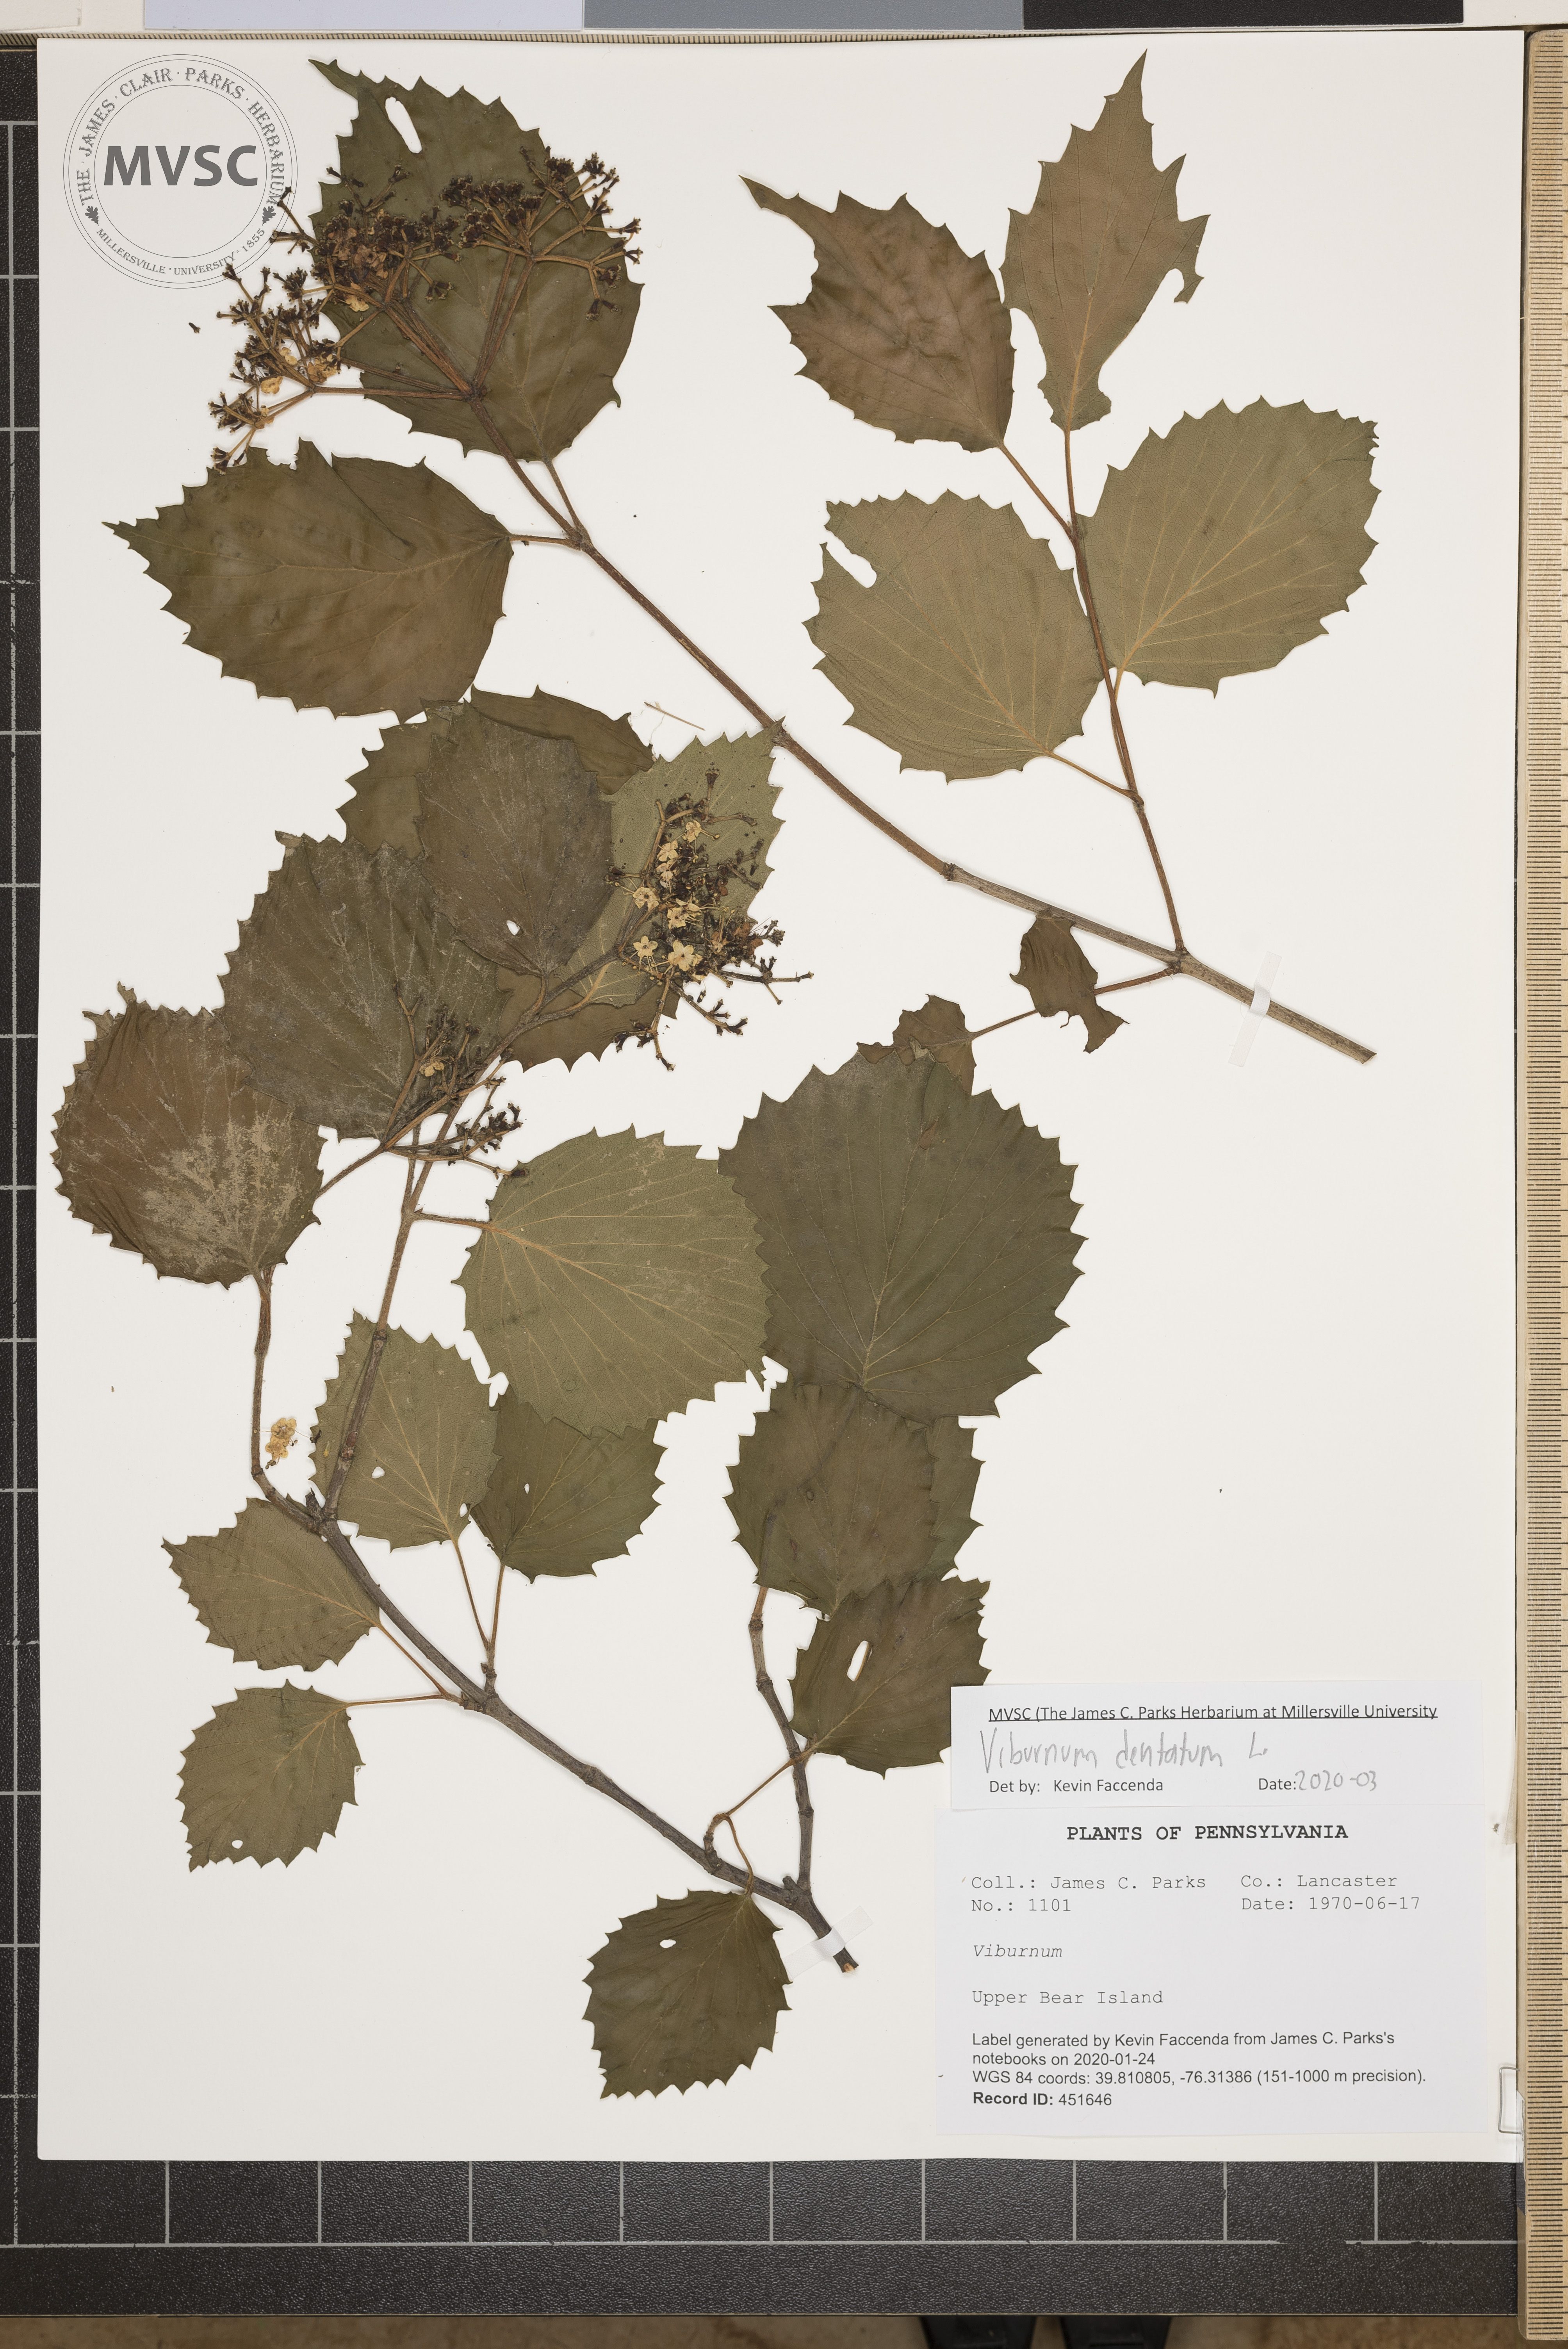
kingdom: Plantae
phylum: Tracheophyta
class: Magnoliopsida
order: Dipsacales
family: Viburnaceae
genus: Viburnum
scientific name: Viburnum dentatum
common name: Arrow-wood
